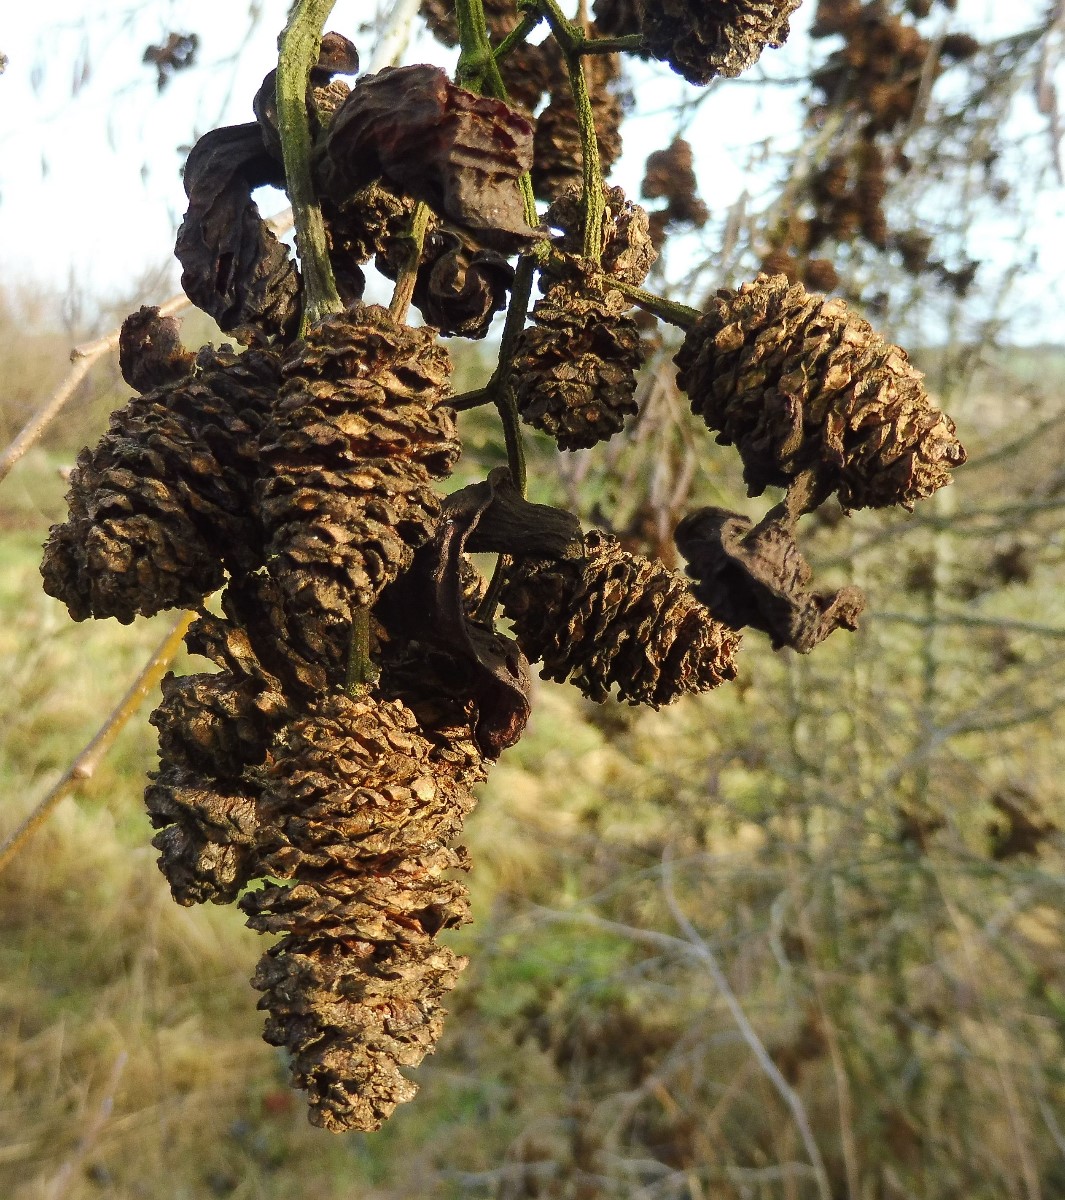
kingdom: Fungi
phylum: Ascomycota
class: Taphrinomycetes
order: Taphrinales
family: Taphrinaceae
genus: Taphrina
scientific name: Taphrina alni
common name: Alder tongue
